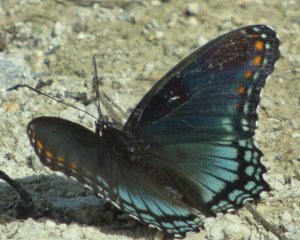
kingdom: Animalia
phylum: Arthropoda
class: Insecta
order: Lepidoptera
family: Nymphalidae
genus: Limenitis
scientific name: Limenitis astyanax
